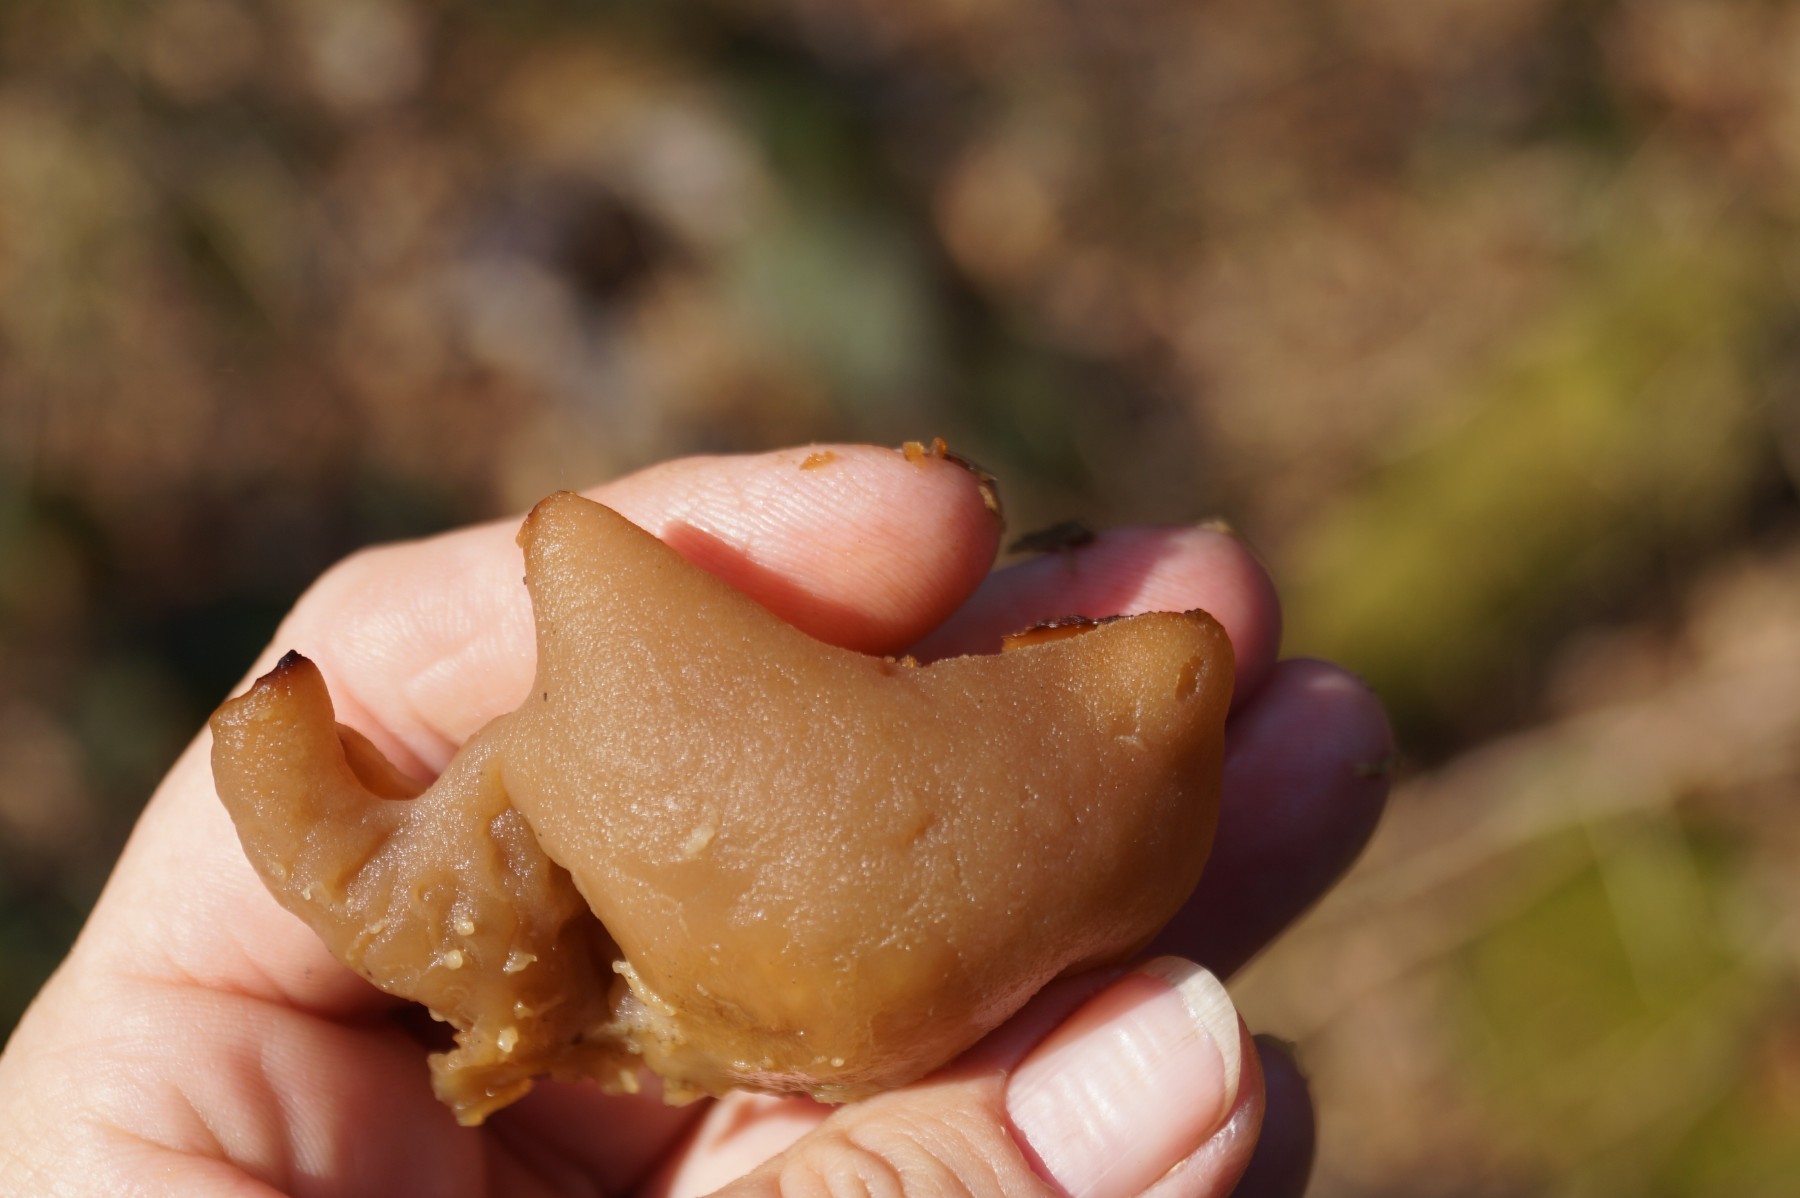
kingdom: Fungi
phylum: Ascomycota
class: Pezizomycetes
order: Pezizales
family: Discinaceae
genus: Discina
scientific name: Discina ancilis
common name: udbredt stenmorkel
